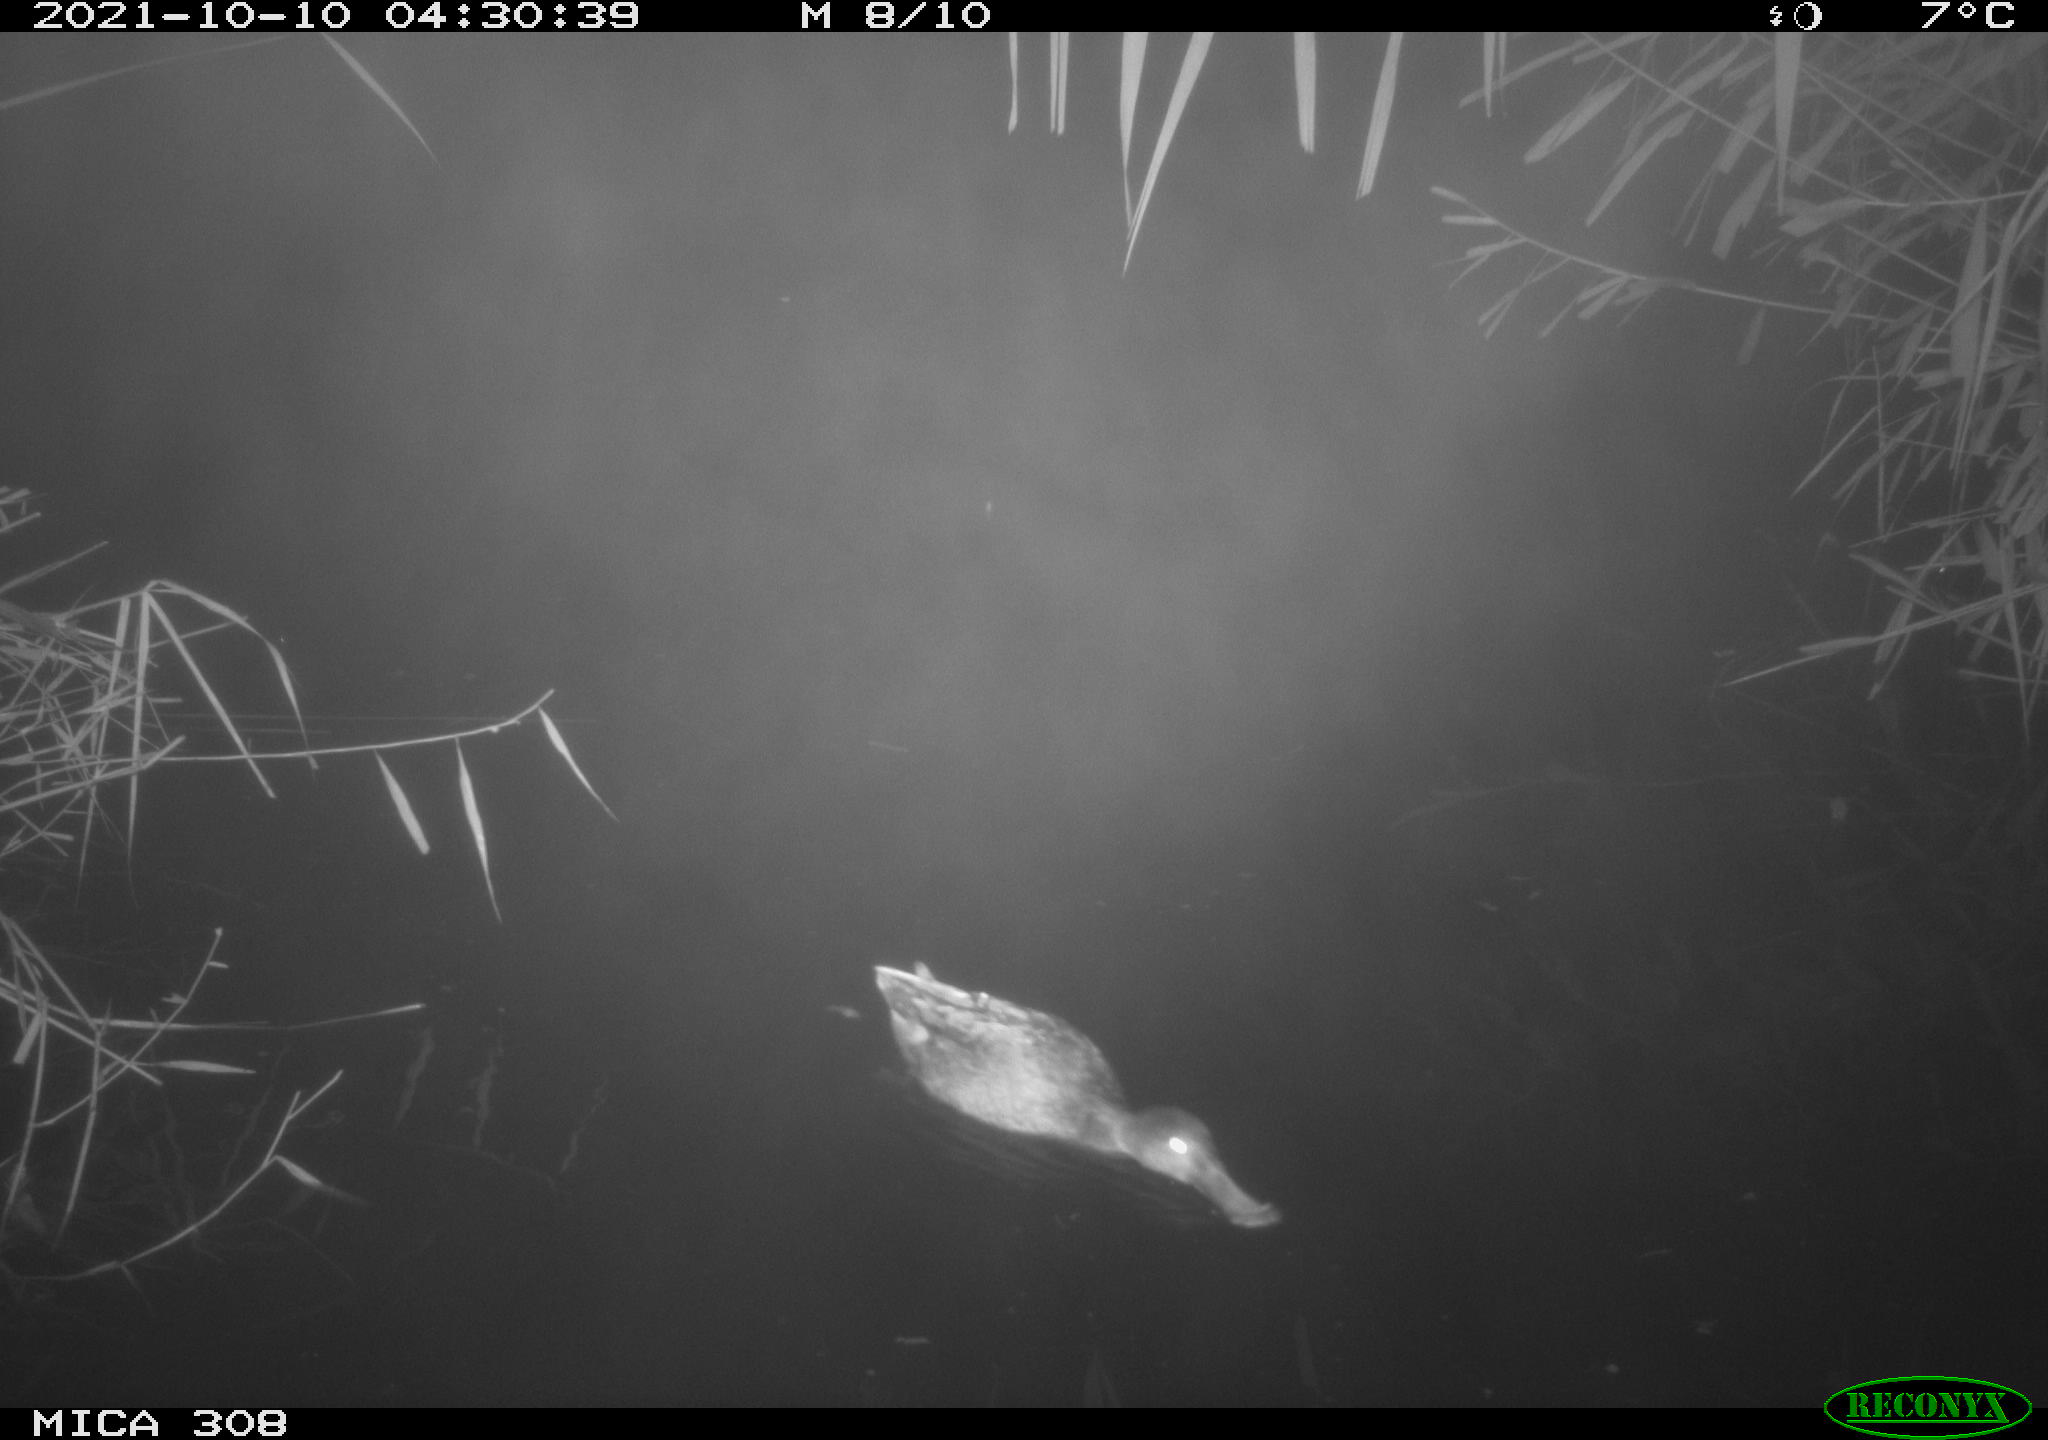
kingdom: Animalia
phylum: Chordata
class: Aves
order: Anseriformes
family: Anatidae
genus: Spatula
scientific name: Spatula clypeata
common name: Northern shoveler
